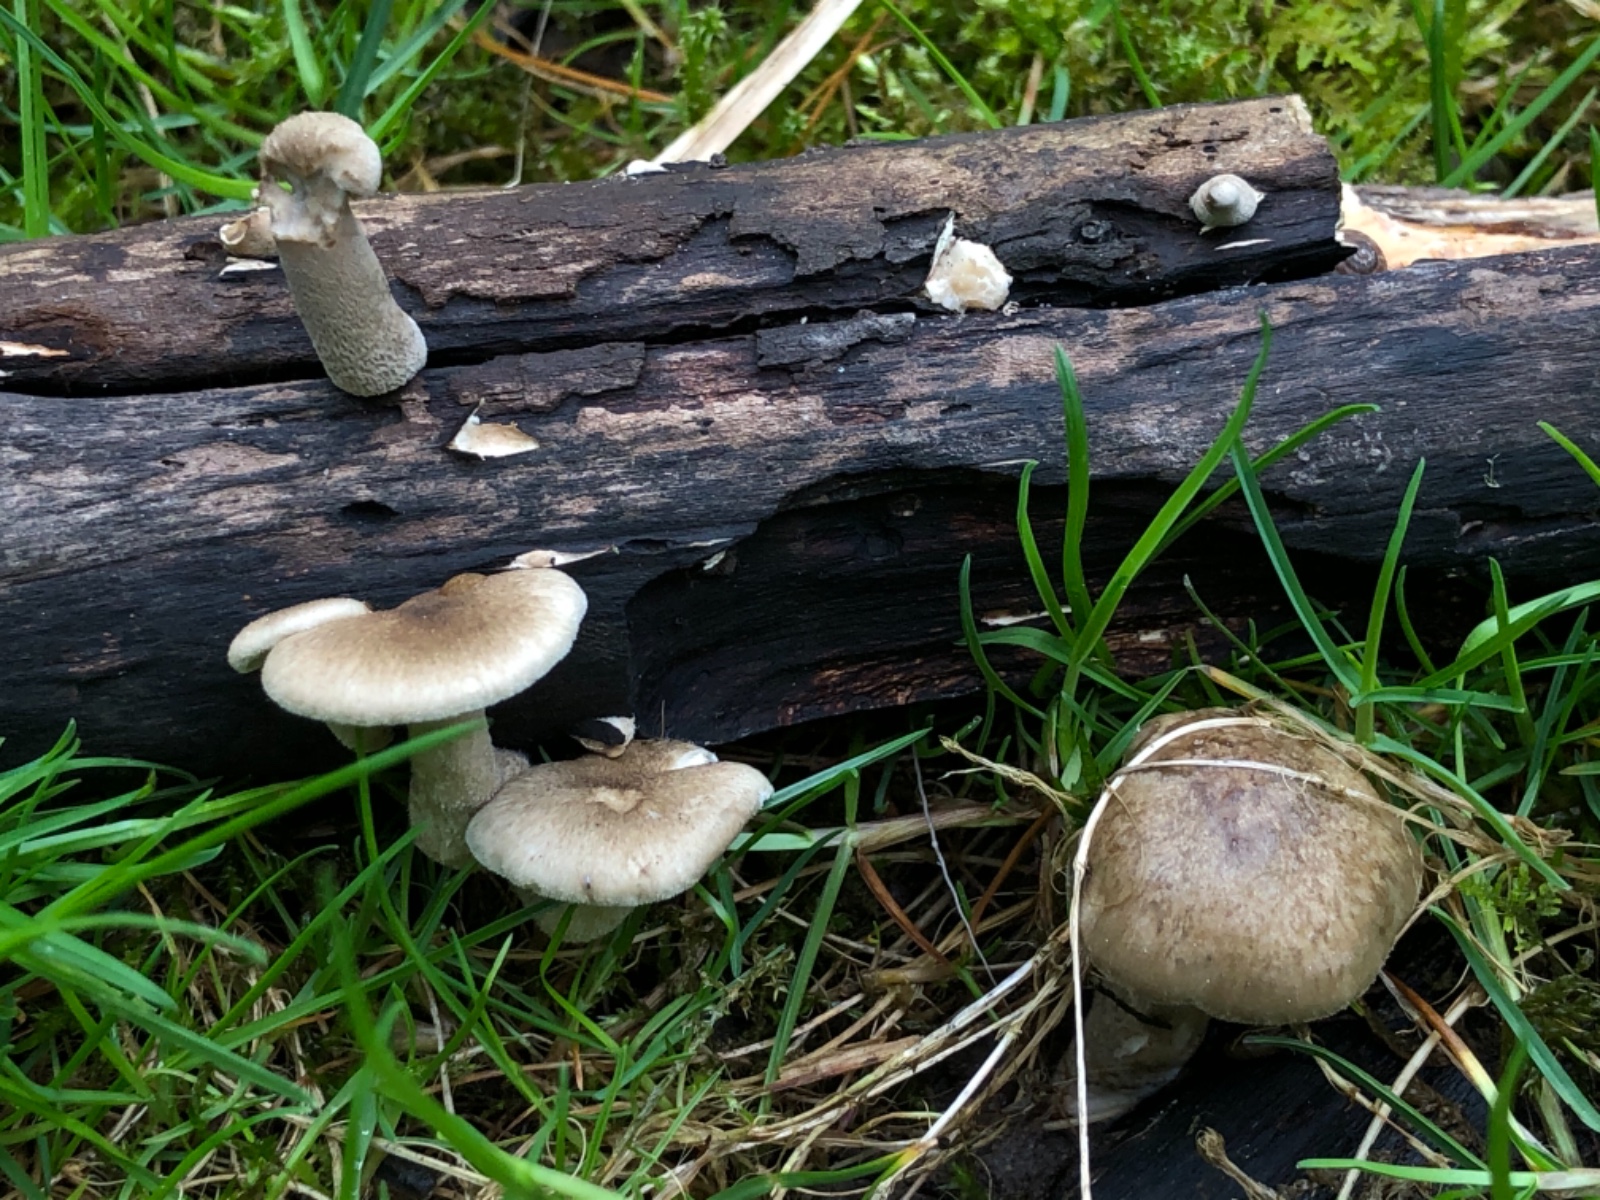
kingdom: Fungi
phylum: Basidiomycota
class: Agaricomycetes
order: Polyporales
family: Polyporaceae
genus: Lentinus
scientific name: Lentinus substrictus
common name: forårs-stilkporesvamp
